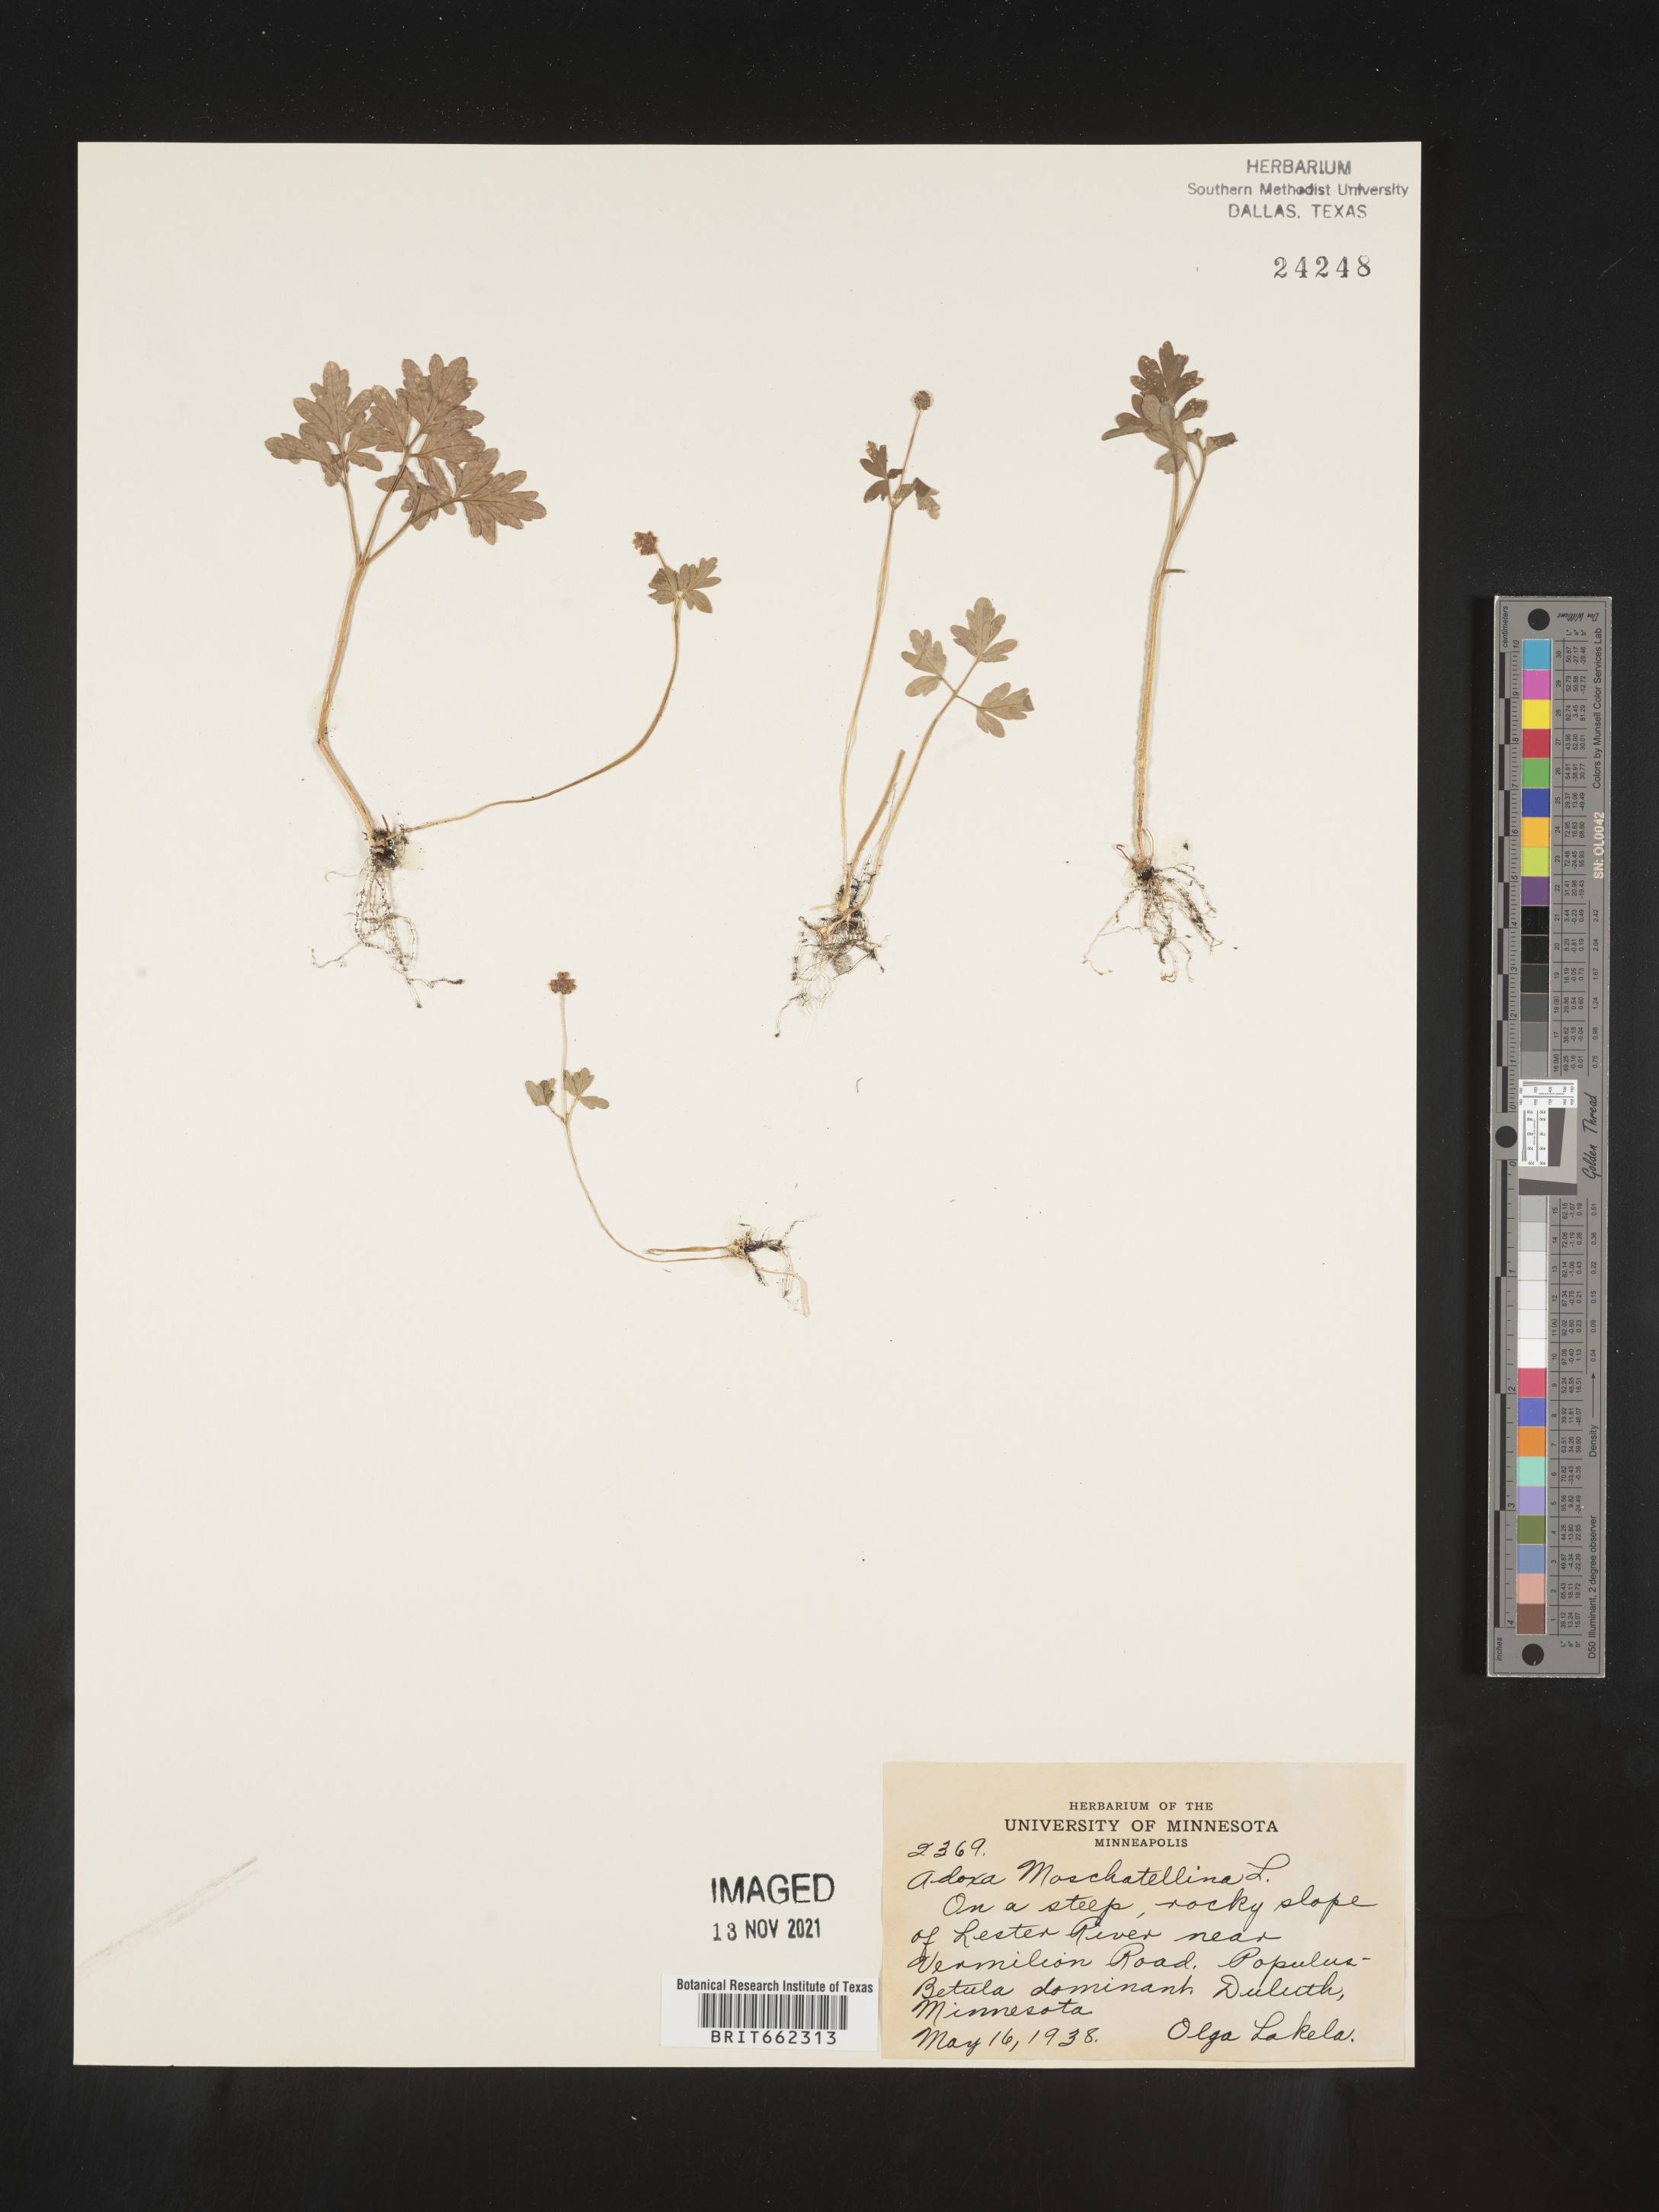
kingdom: Plantae
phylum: Tracheophyta
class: Magnoliopsida
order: Dipsacales
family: Viburnaceae
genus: Adoxa
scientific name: Adoxa
